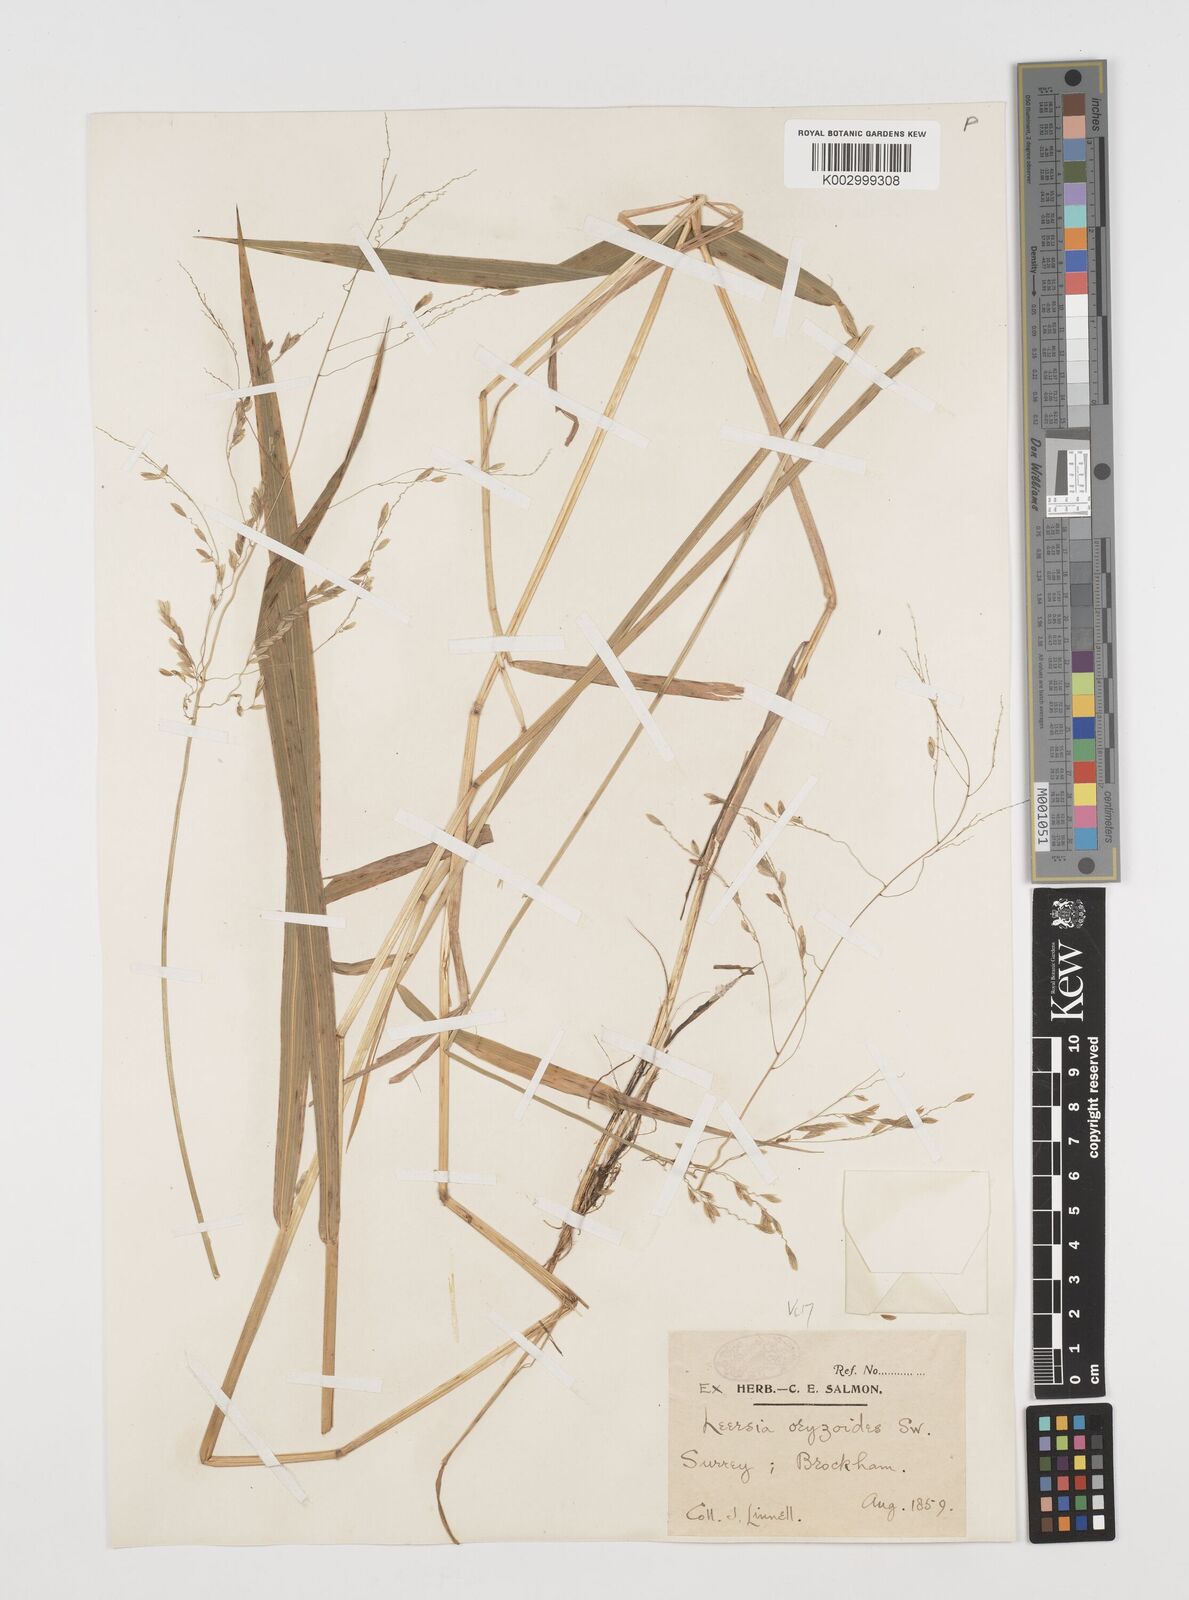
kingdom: Plantae
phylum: Tracheophyta
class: Liliopsida
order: Poales
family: Poaceae
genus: Leersia
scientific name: Leersia oryzoides
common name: Cut-grass
